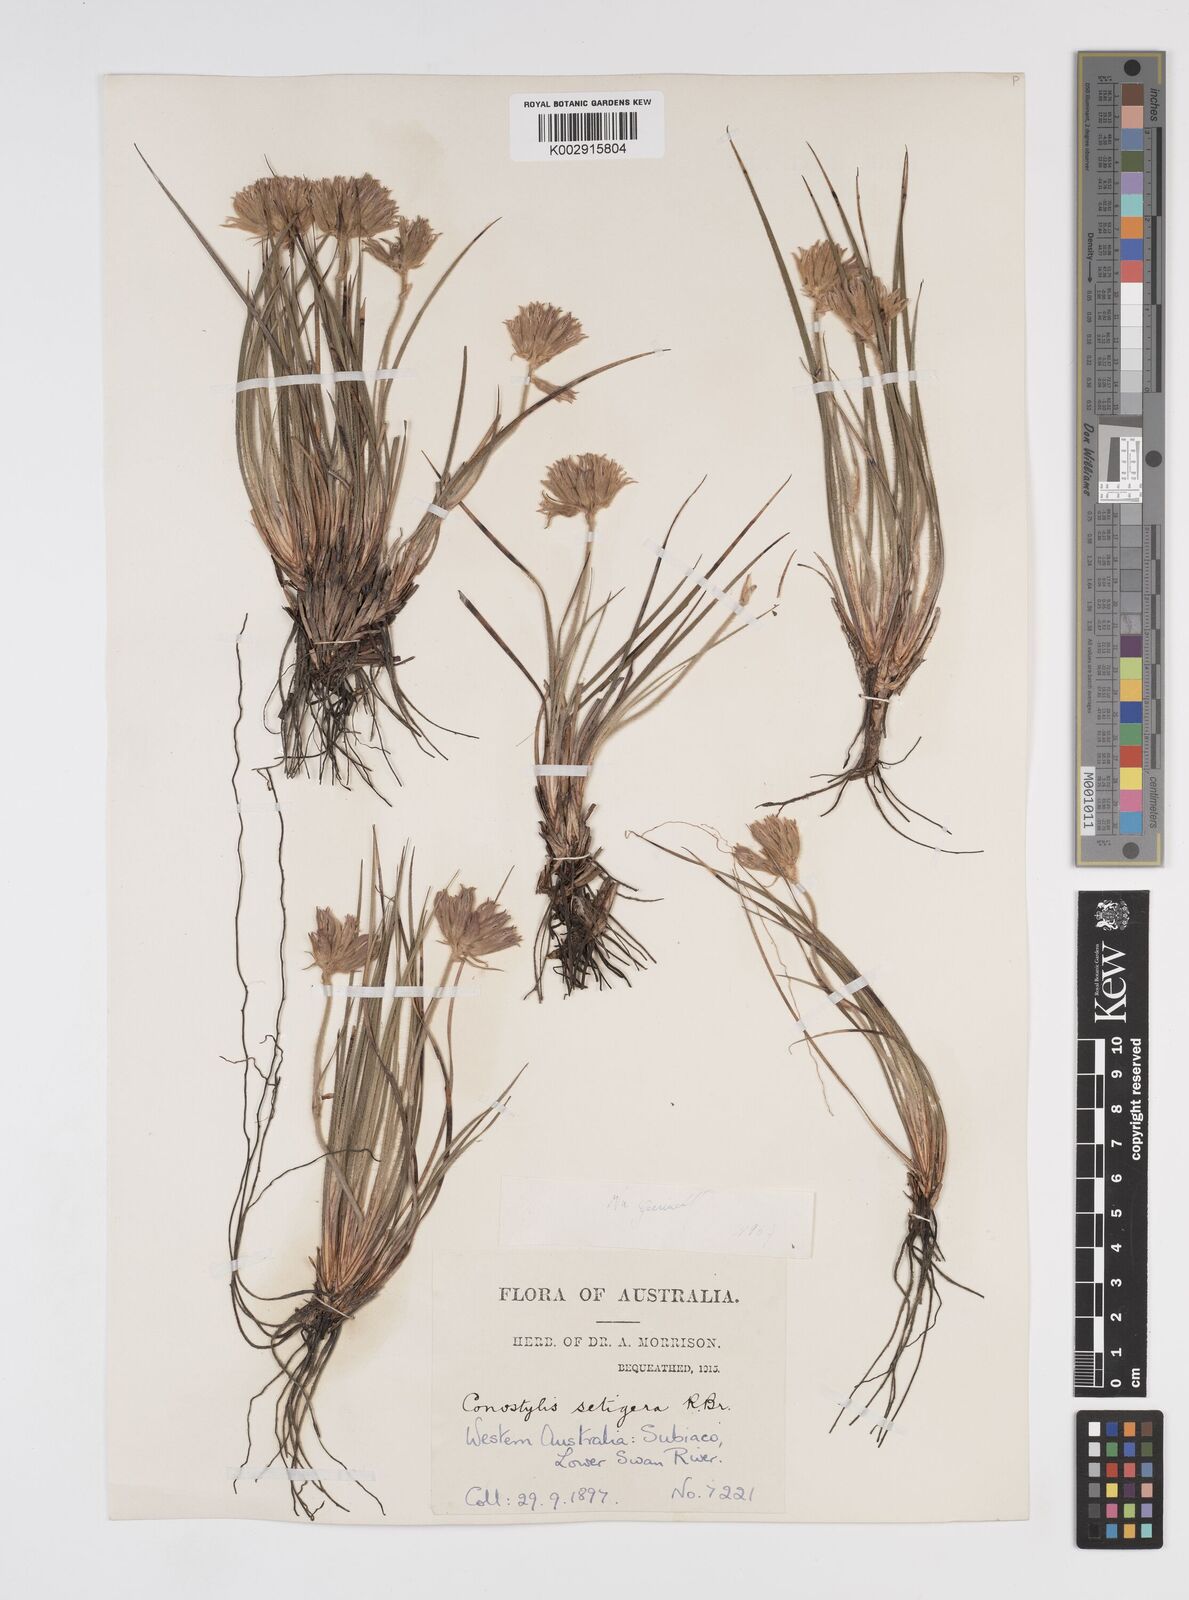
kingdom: Plantae
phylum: Tracheophyta
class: Liliopsida
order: Commelinales
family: Haemodoraceae
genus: Conostylis
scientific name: Conostylis setigera
